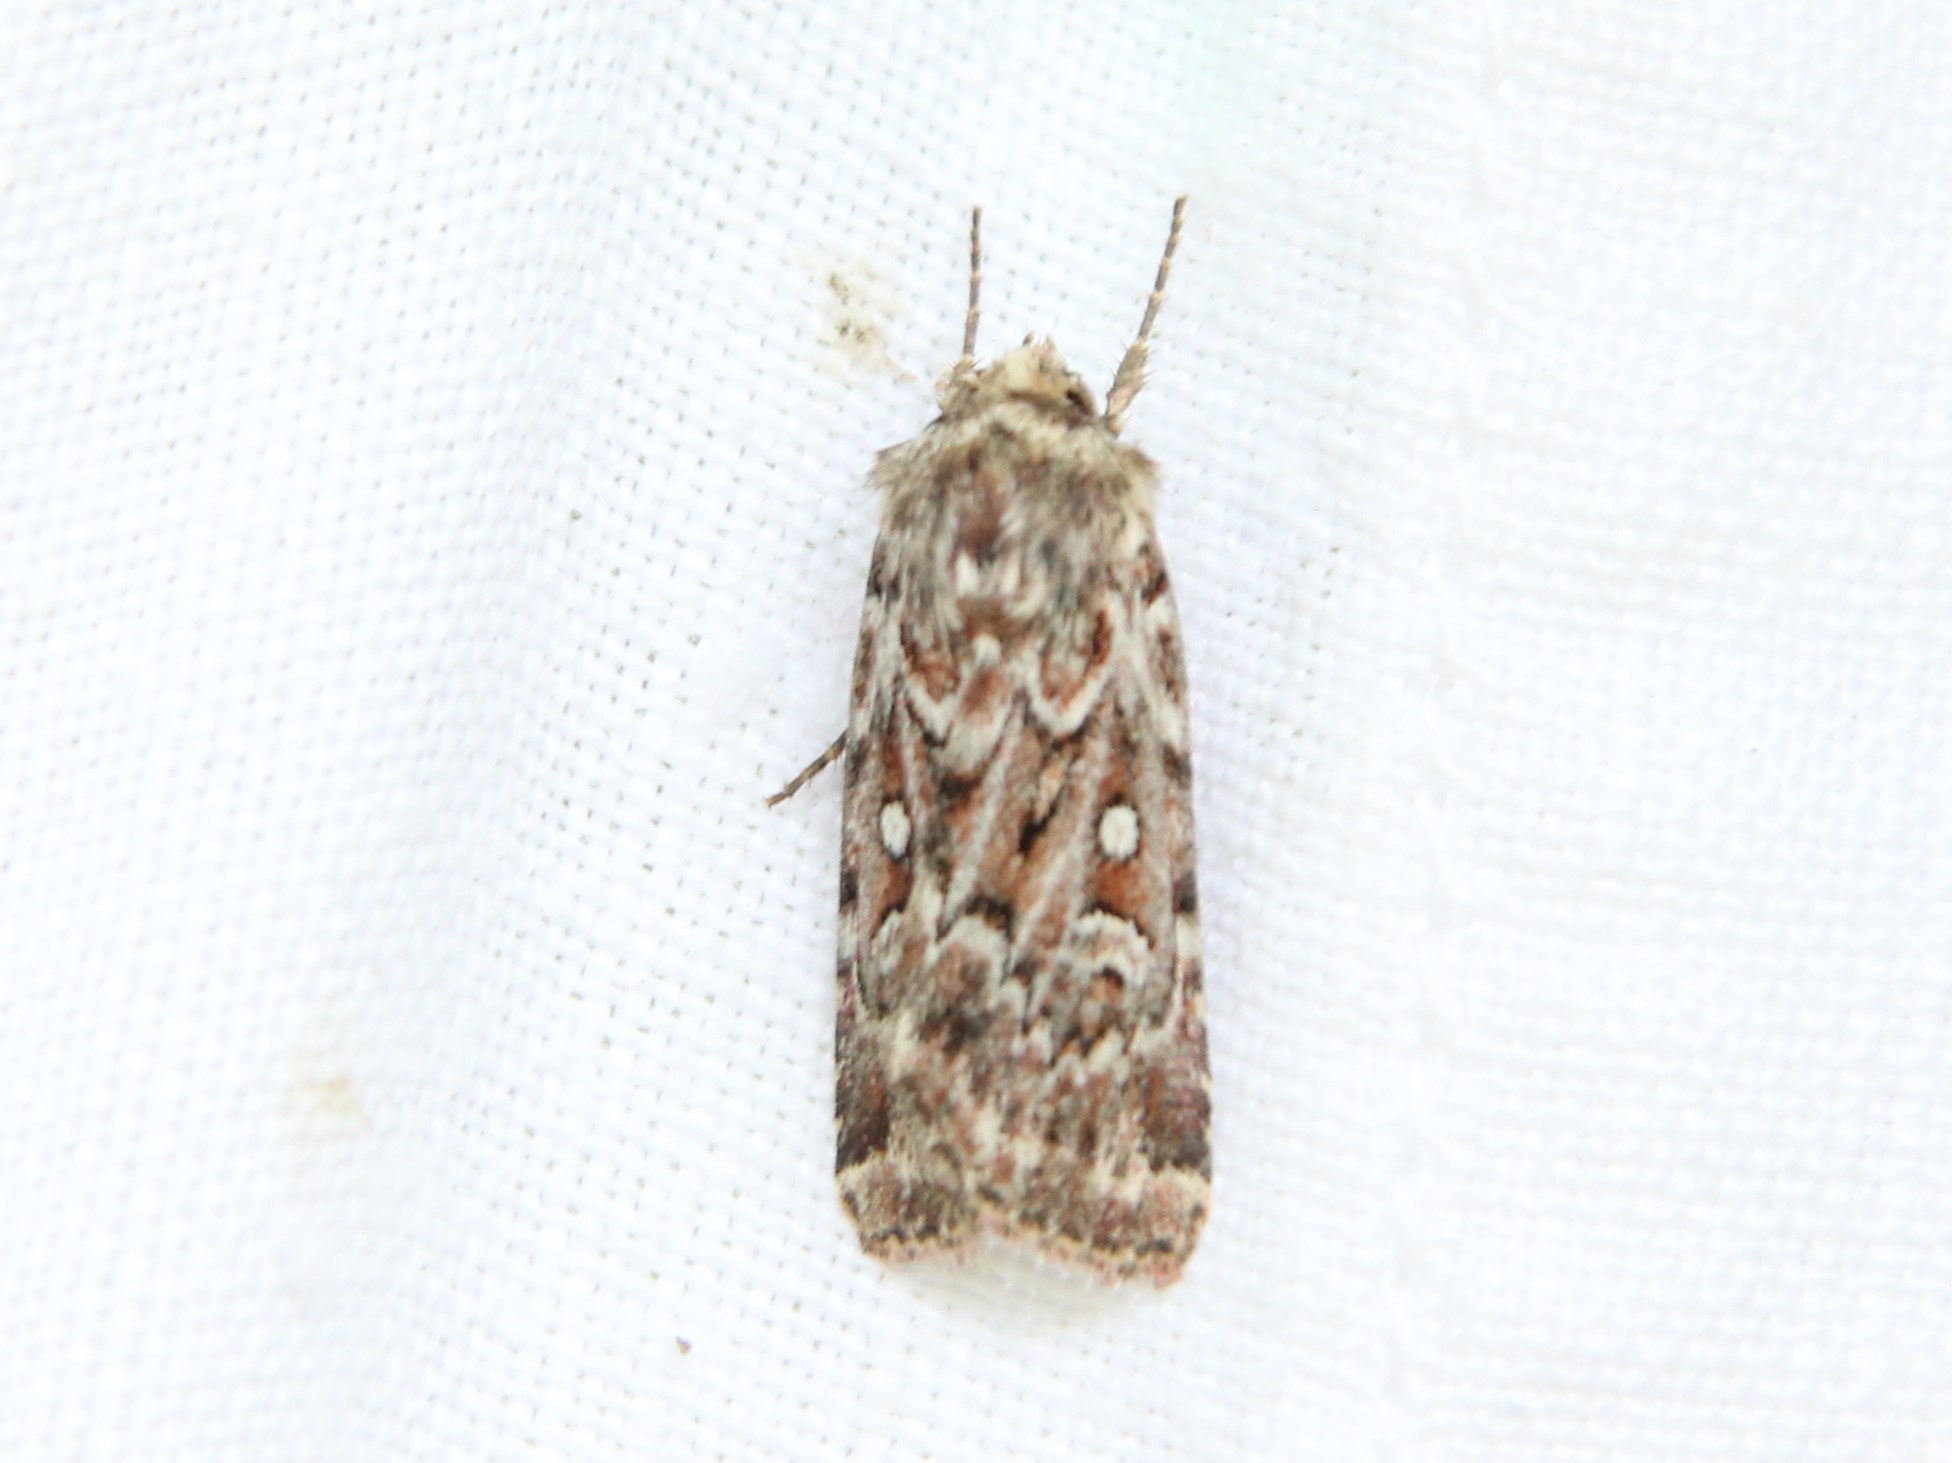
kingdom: Animalia
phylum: Arthropoda
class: Insecta
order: Lepidoptera
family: Noctuidae
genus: Lycophotia
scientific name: Lycophotia porphyrea
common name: True lover's knot
